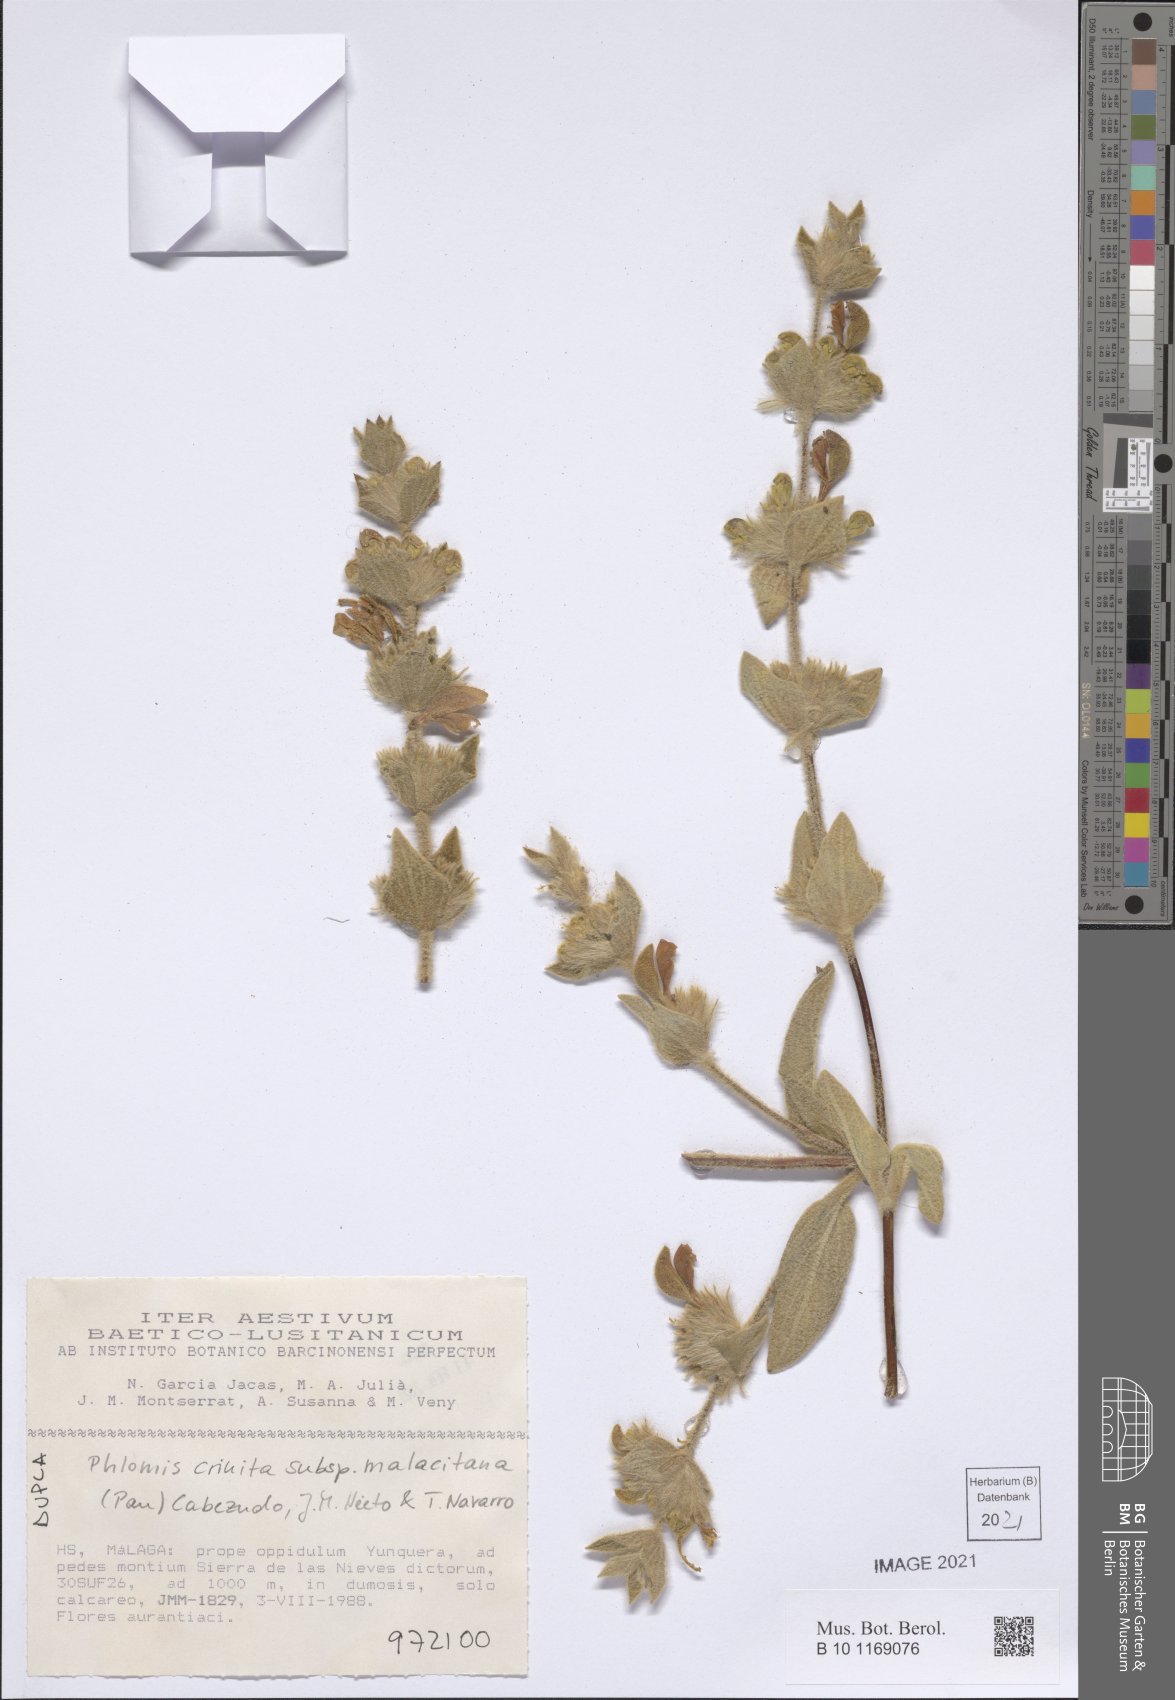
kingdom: Plantae
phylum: Tracheophyta
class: Magnoliopsida
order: Lamiales
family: Lamiaceae
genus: Phlomis
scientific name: Phlomis crinita
